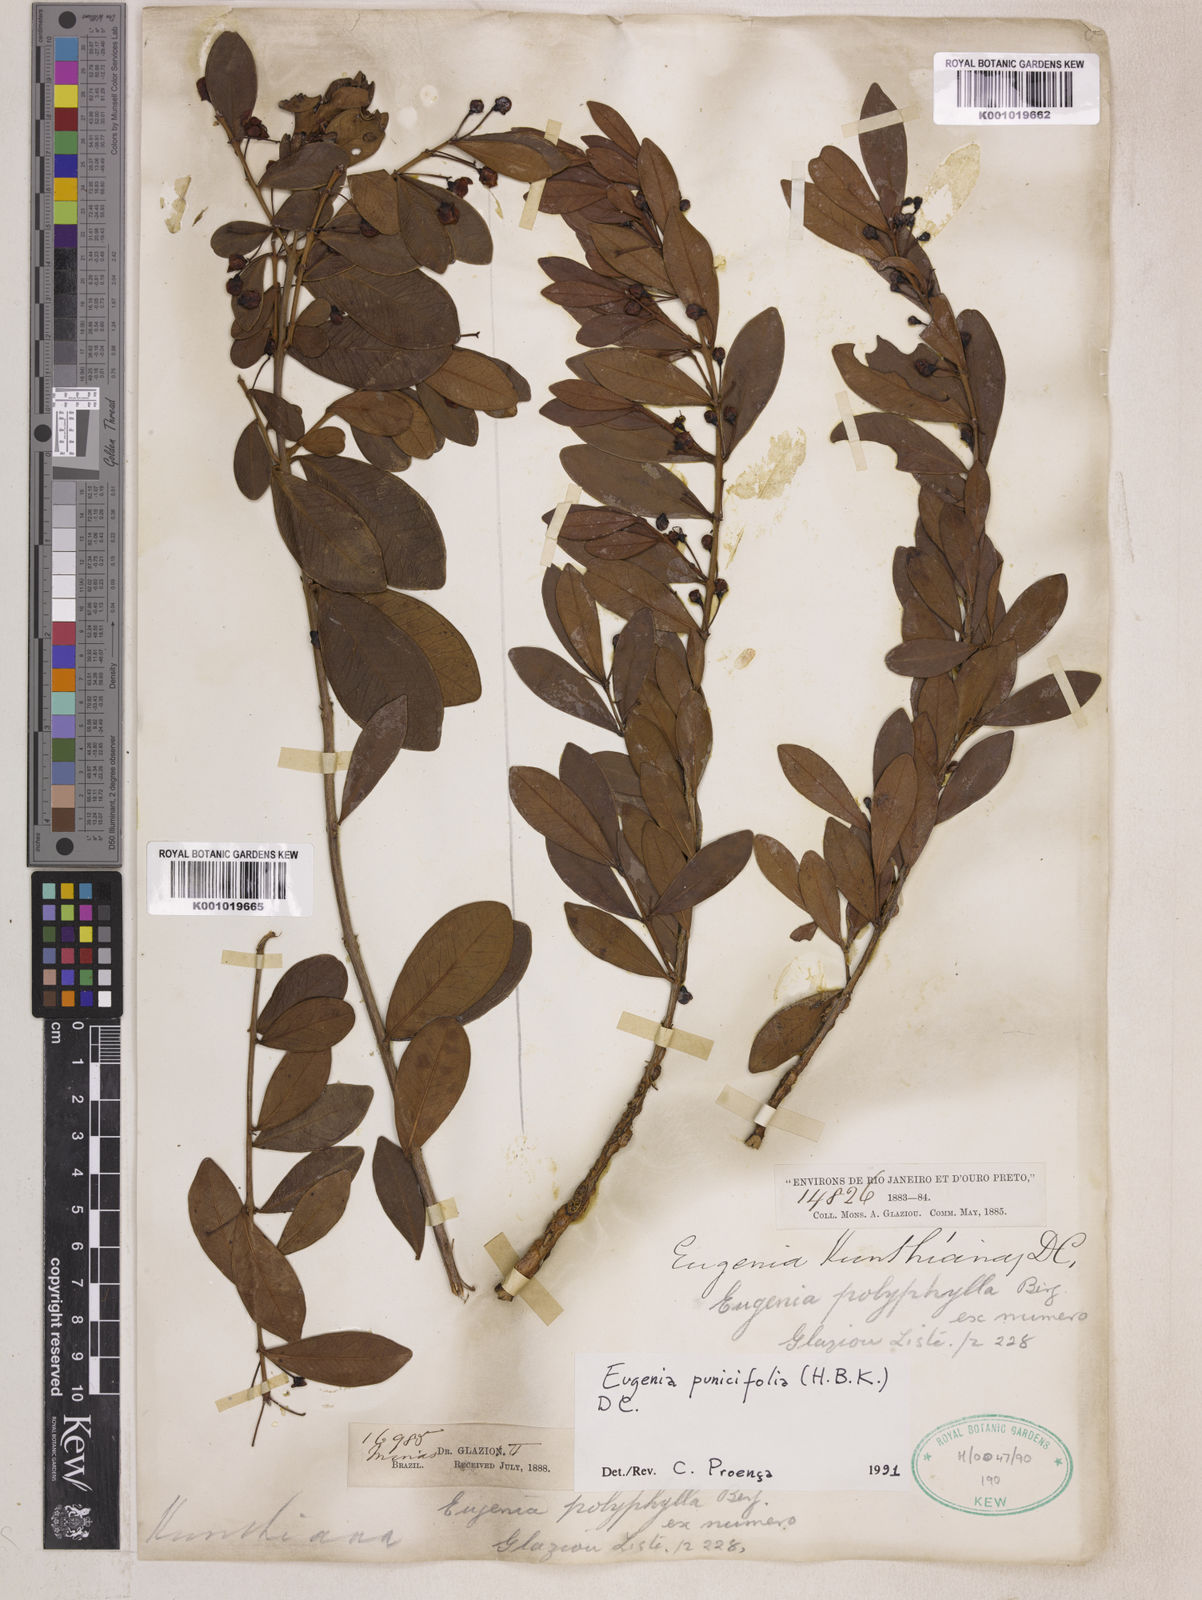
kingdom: Plantae
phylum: Tracheophyta
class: Magnoliopsida
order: Myrtales
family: Myrtaceae
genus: Eugenia
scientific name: Eugenia punicifolia
